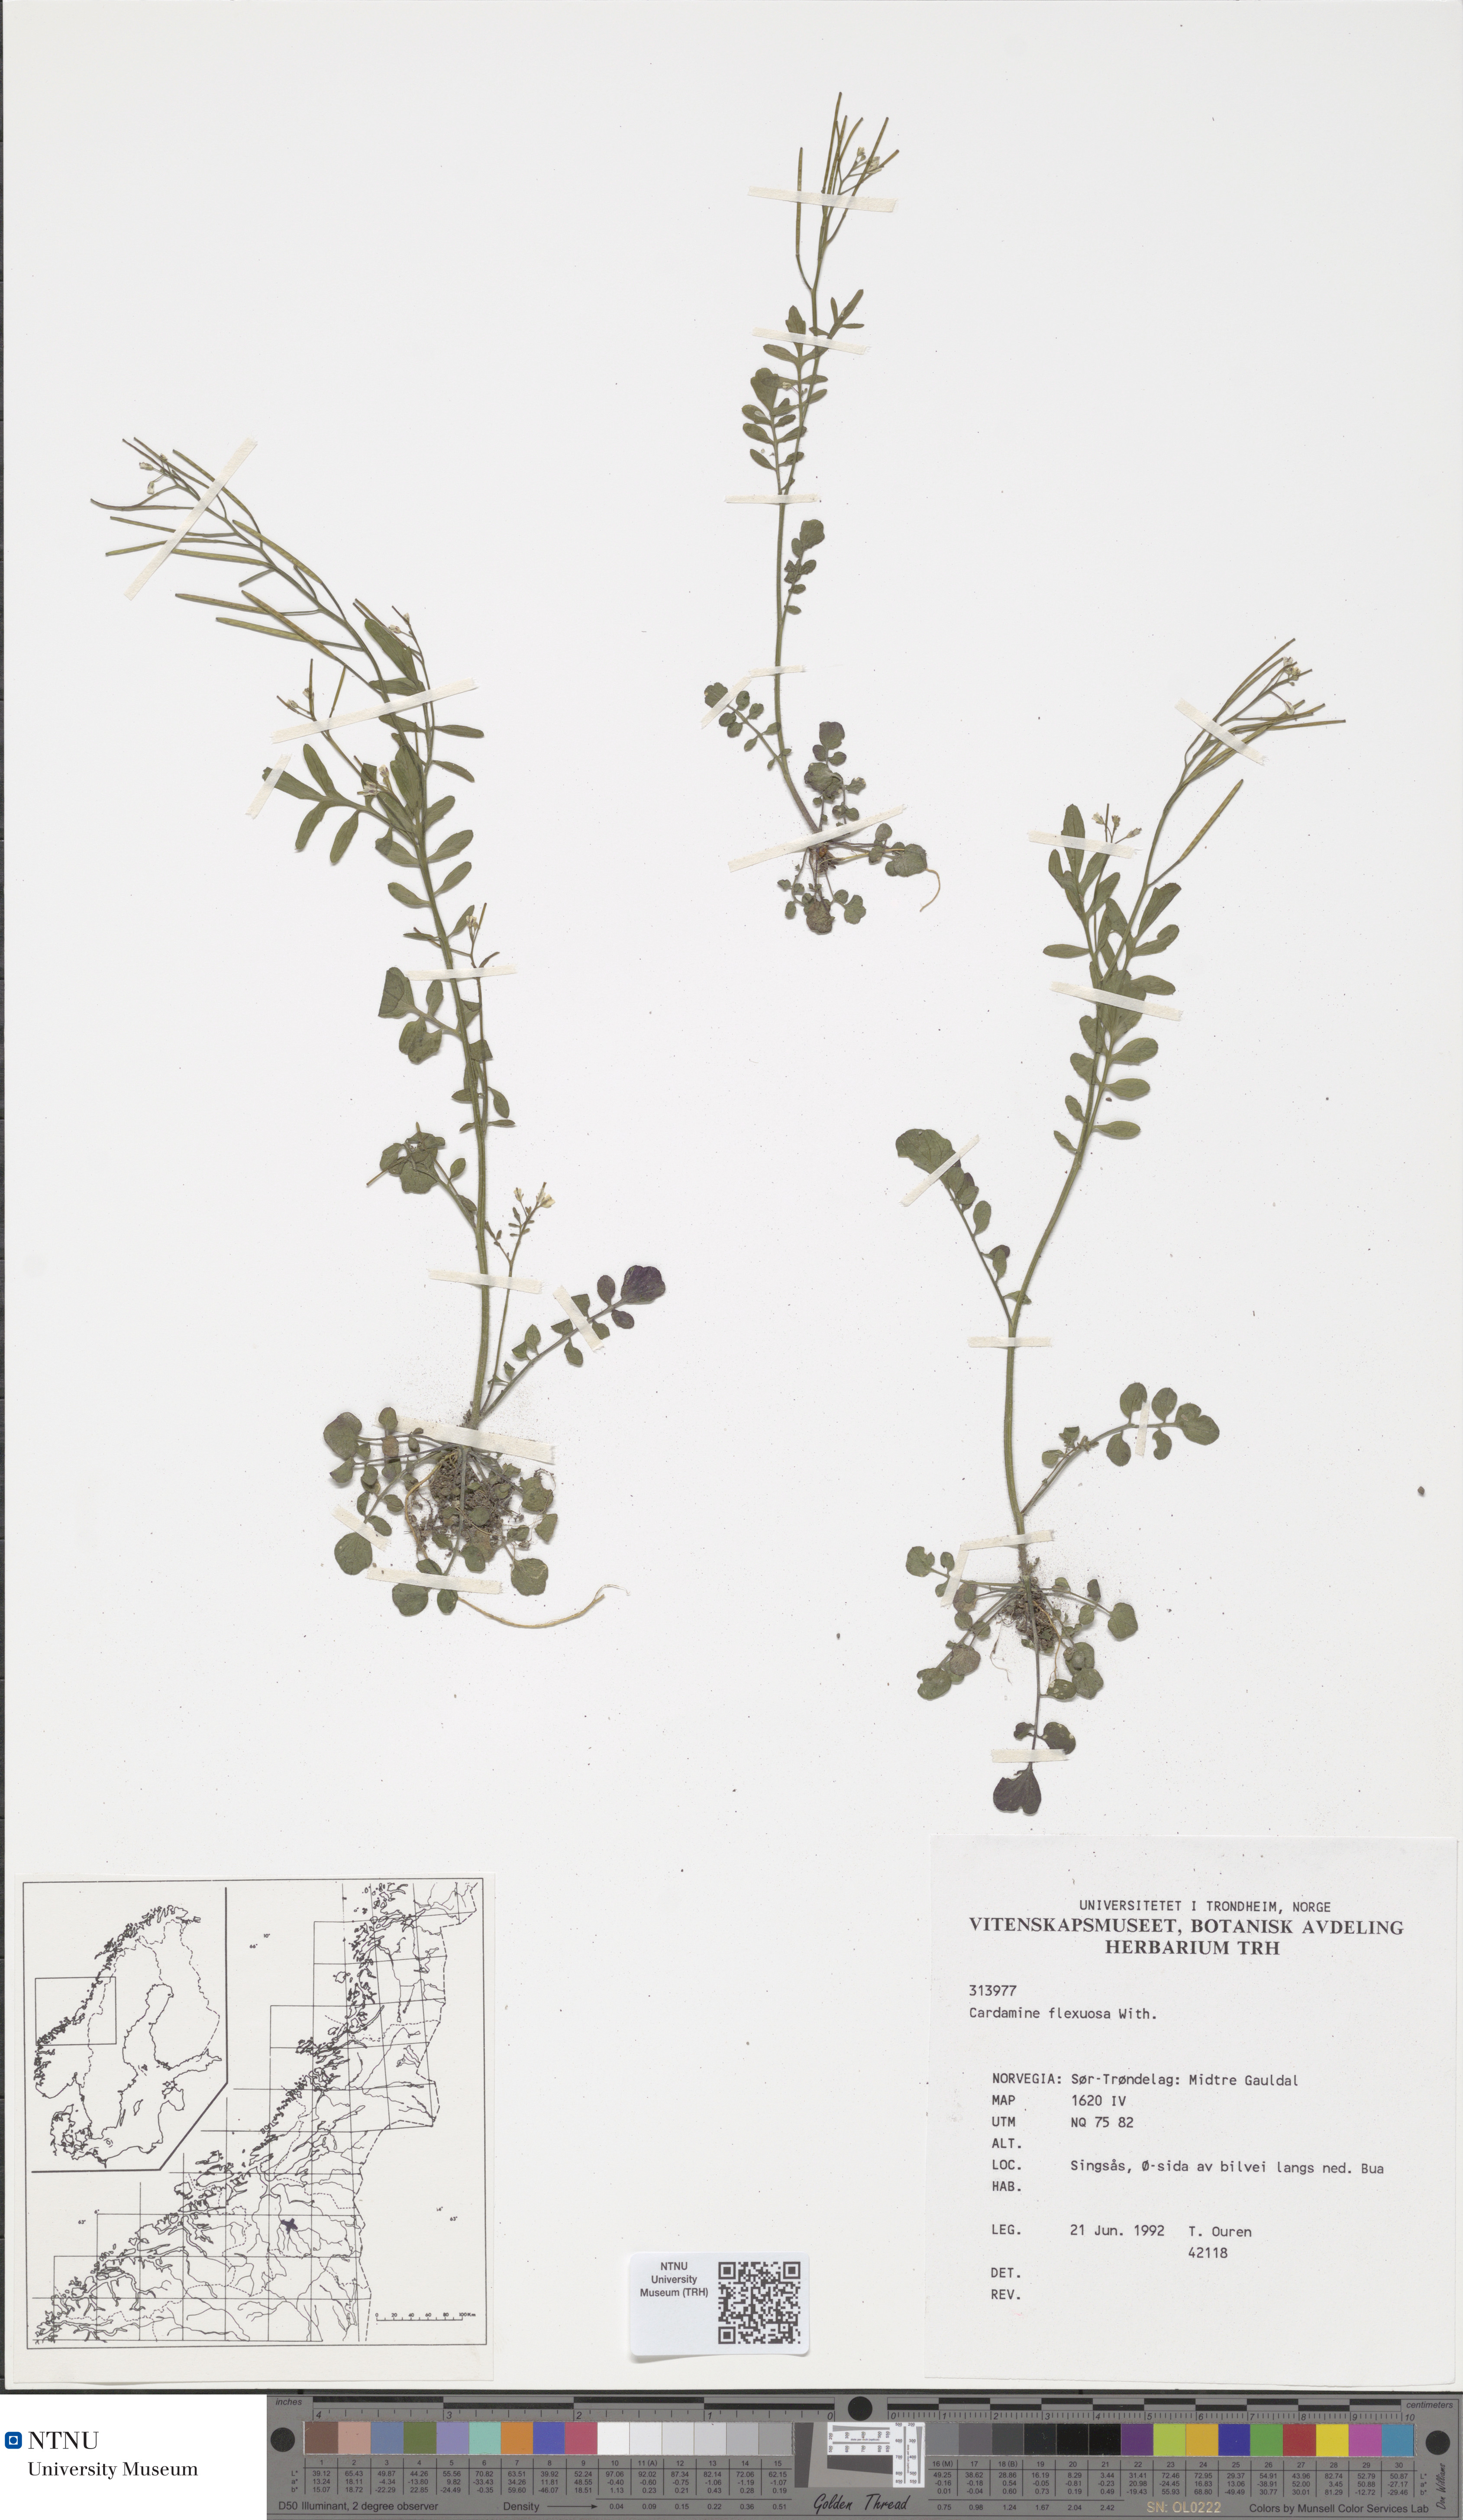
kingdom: Plantae
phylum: Tracheophyta
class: Magnoliopsida
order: Brassicales
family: Brassicaceae
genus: Cardamine
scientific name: Cardamine flexuosa
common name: Woodland bittercress
